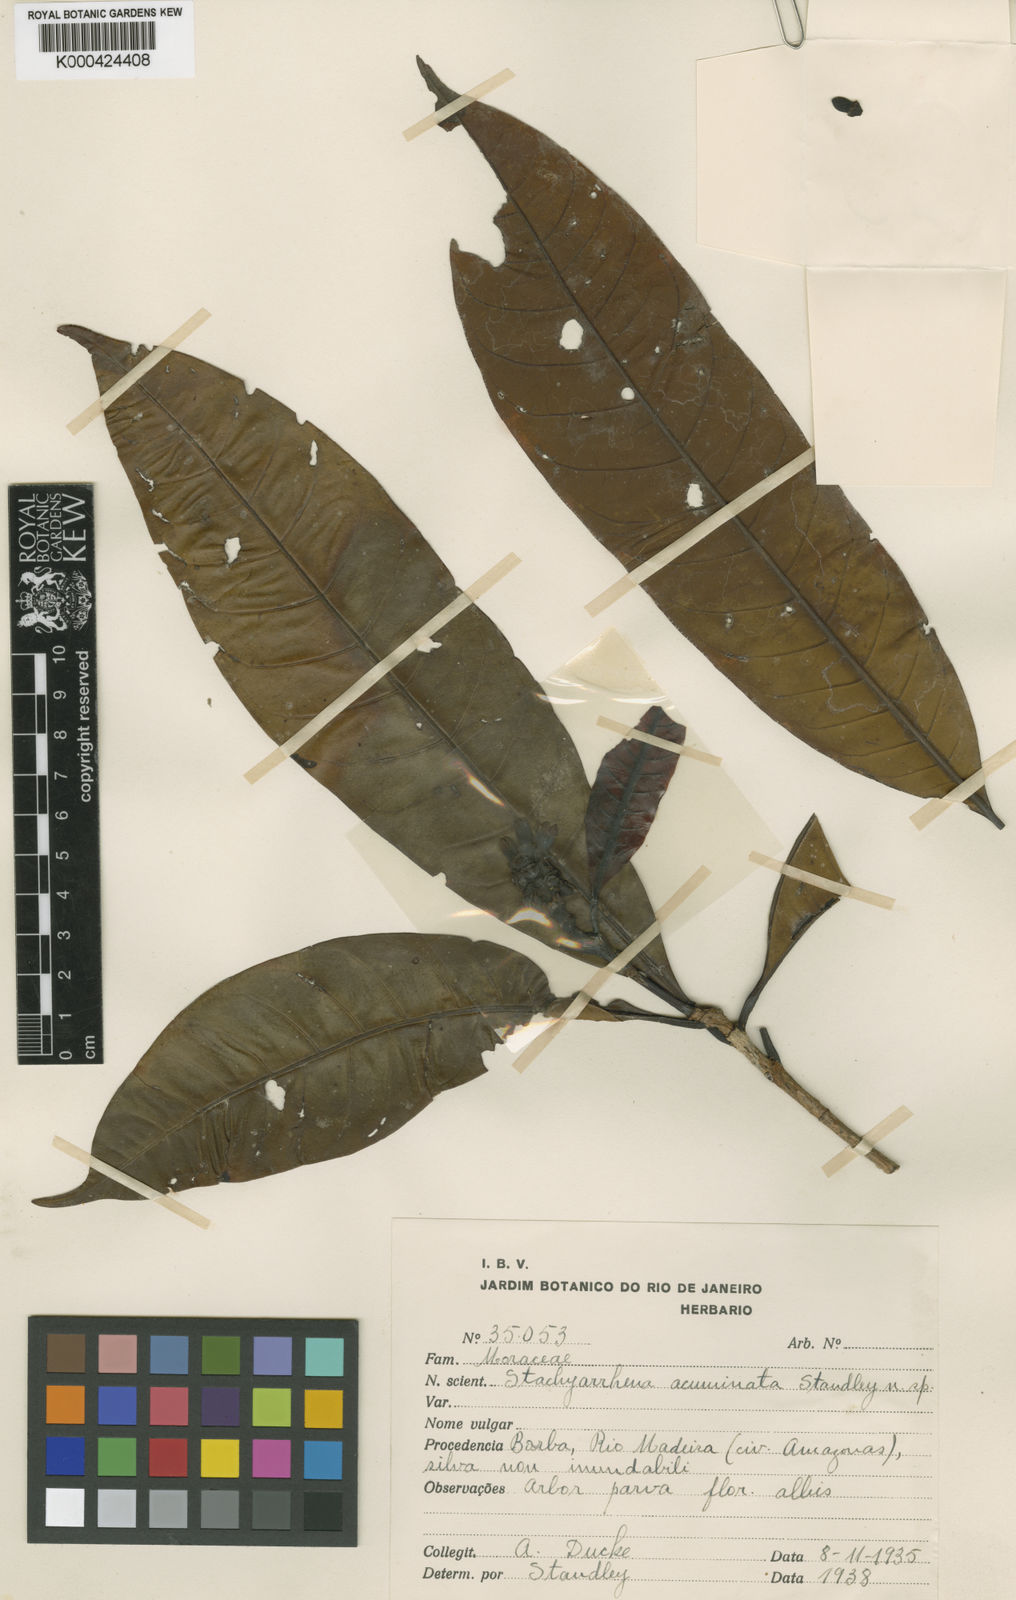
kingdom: Plantae
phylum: Tracheophyta
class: Magnoliopsida
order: Gentianales
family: Rubiaceae
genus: Stachyarrhena
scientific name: Stachyarrhena acuminata
